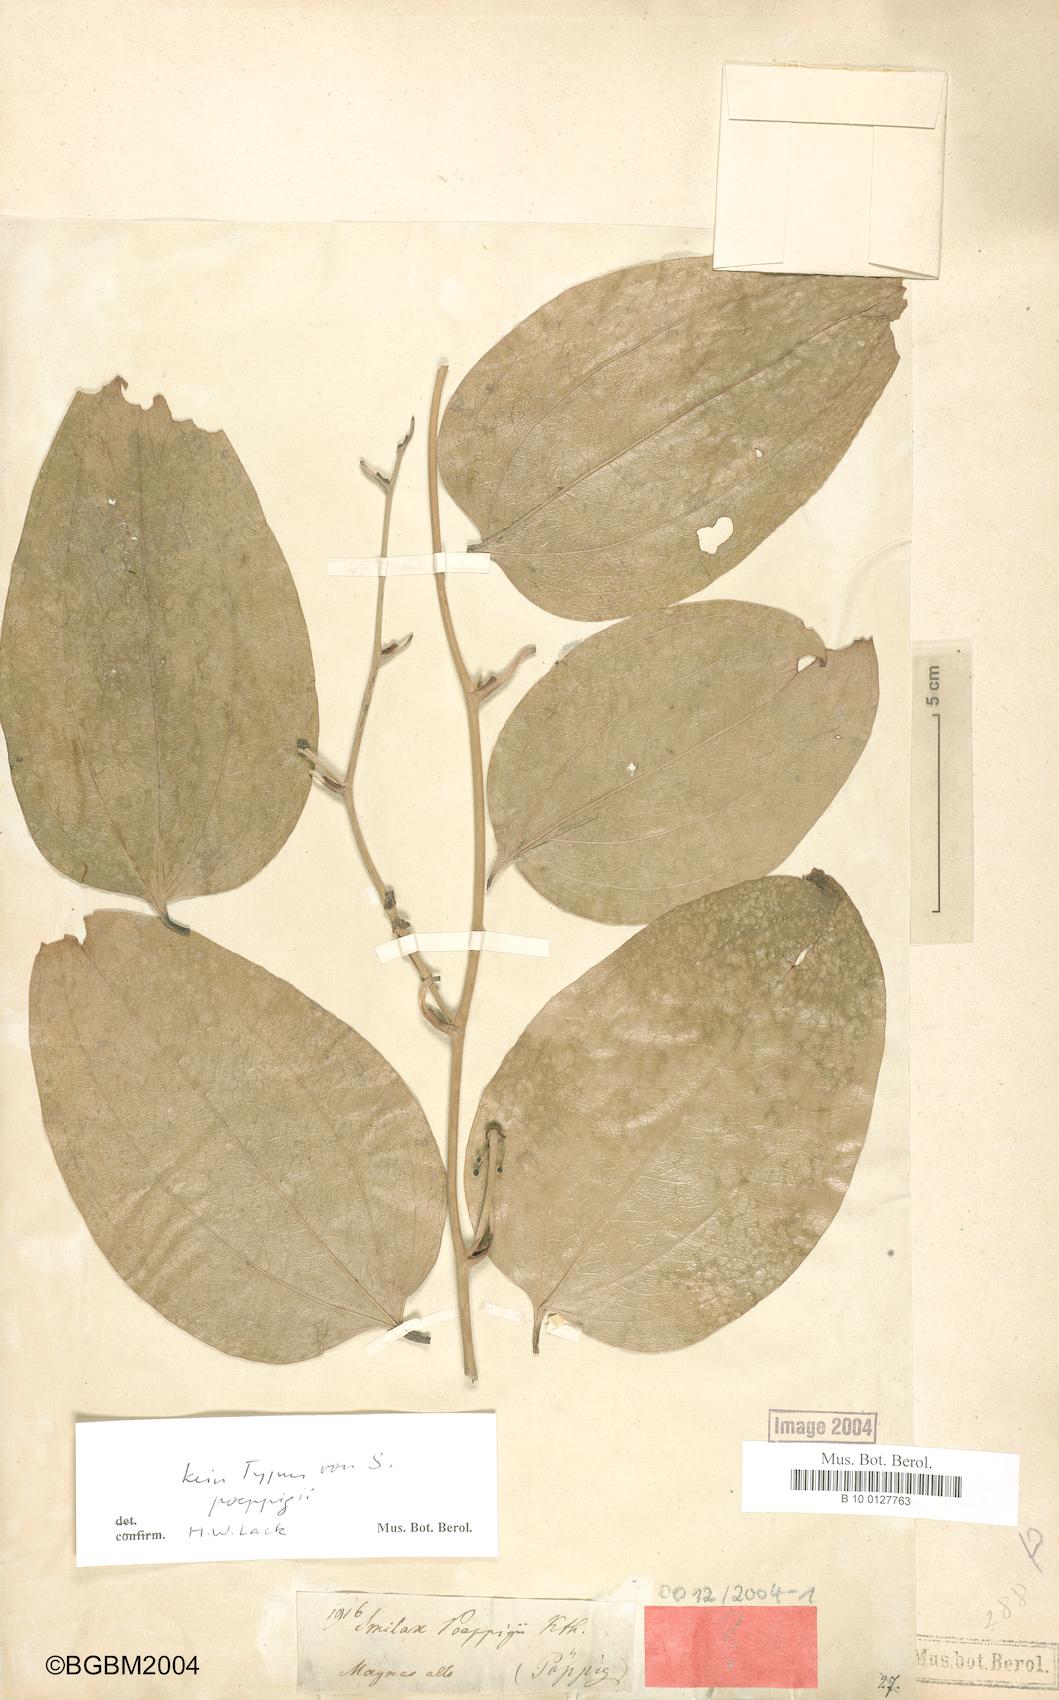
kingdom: Plantae
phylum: Tracheophyta
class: Liliopsida
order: Liliales
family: Smilacaceae
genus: Smilax
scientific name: Smilax purhampuy
